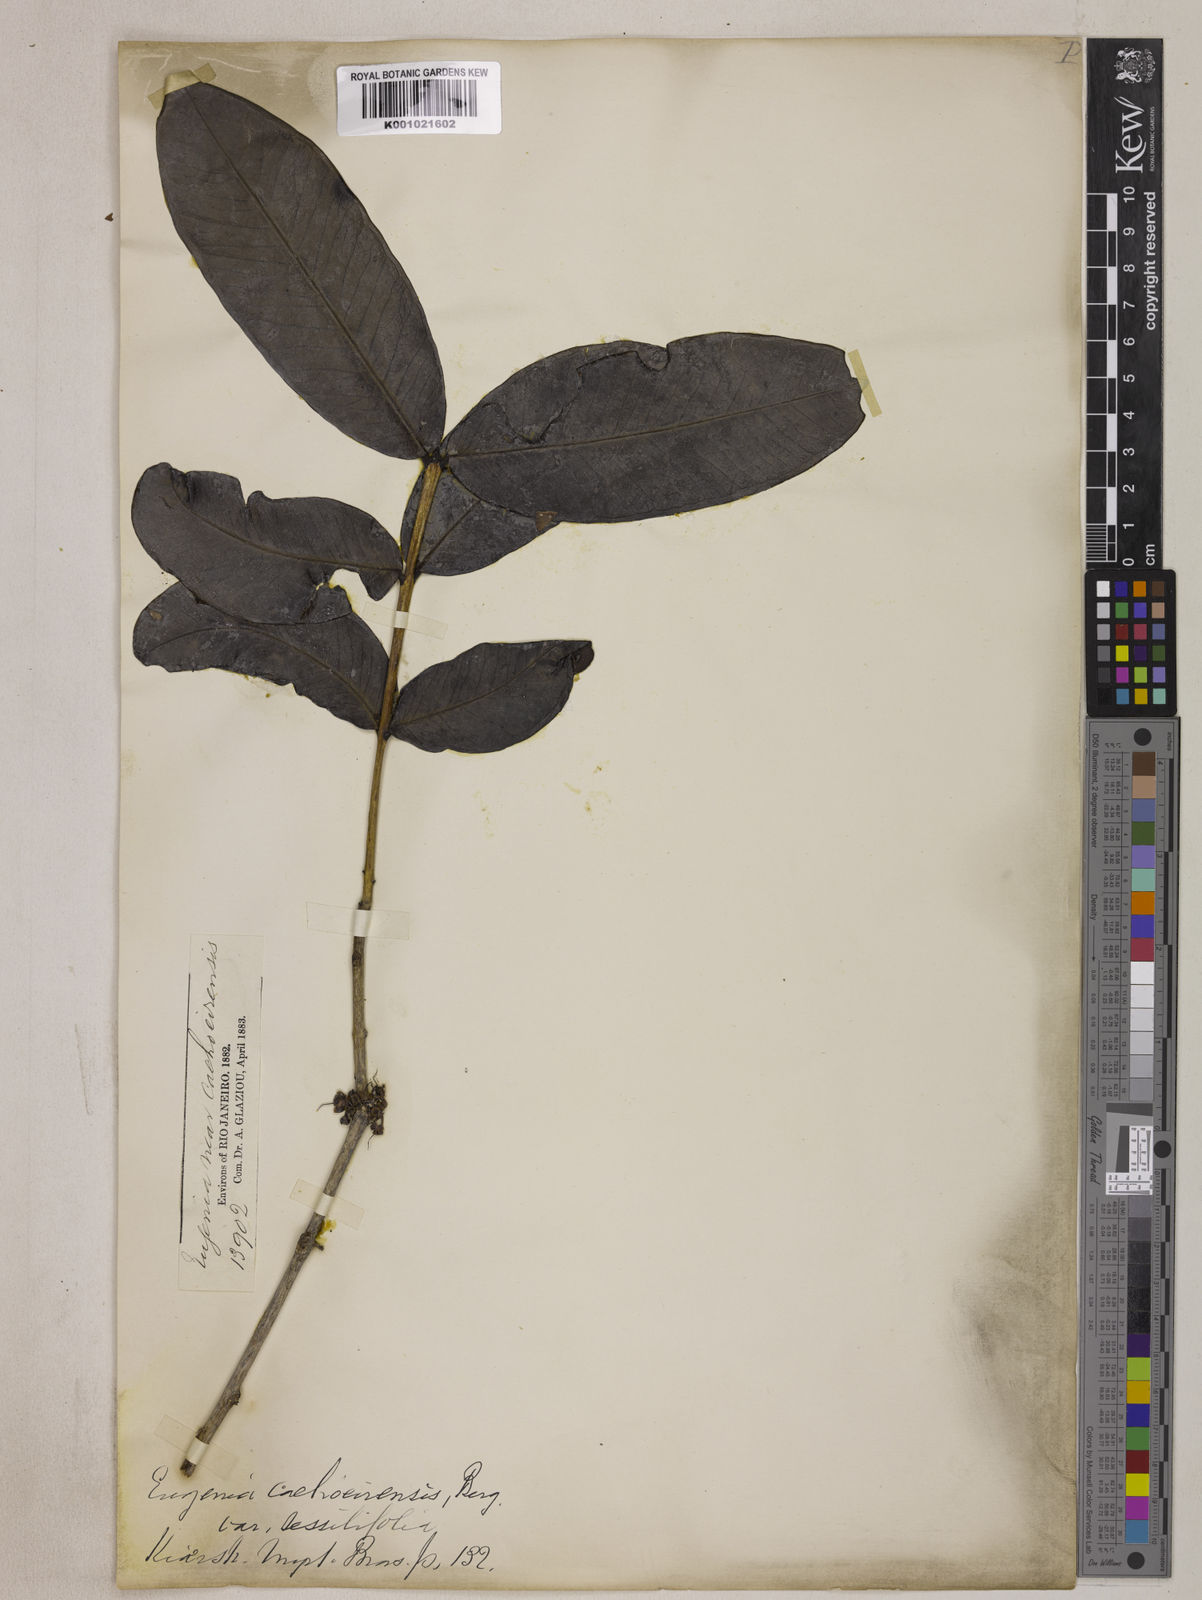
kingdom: Plantae
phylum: Tracheophyta
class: Magnoliopsida
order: Myrtales
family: Myrtaceae
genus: Eugenia
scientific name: Eugenia cachoeirensis
